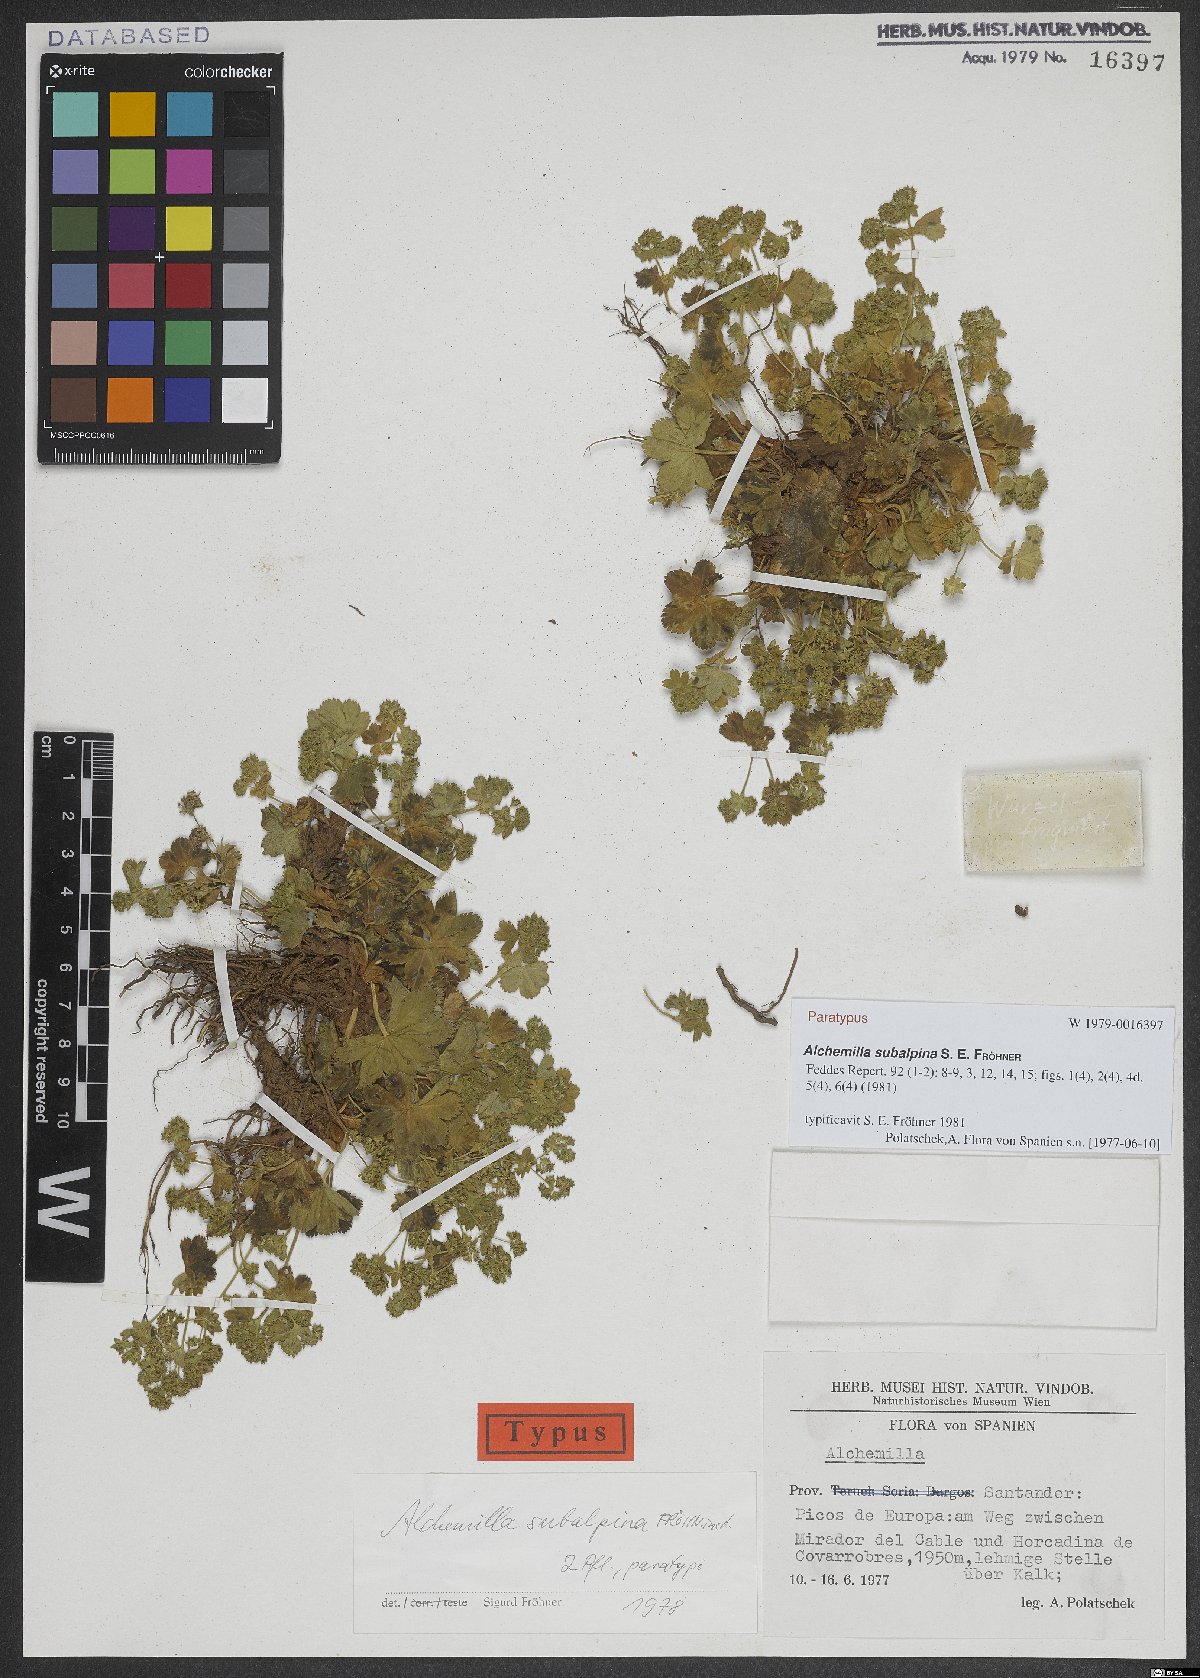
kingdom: Plantae
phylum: Tracheophyta
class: Magnoliopsida
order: Rosales
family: Rosaceae
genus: Alchemilla
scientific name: Alchemilla subalpina
